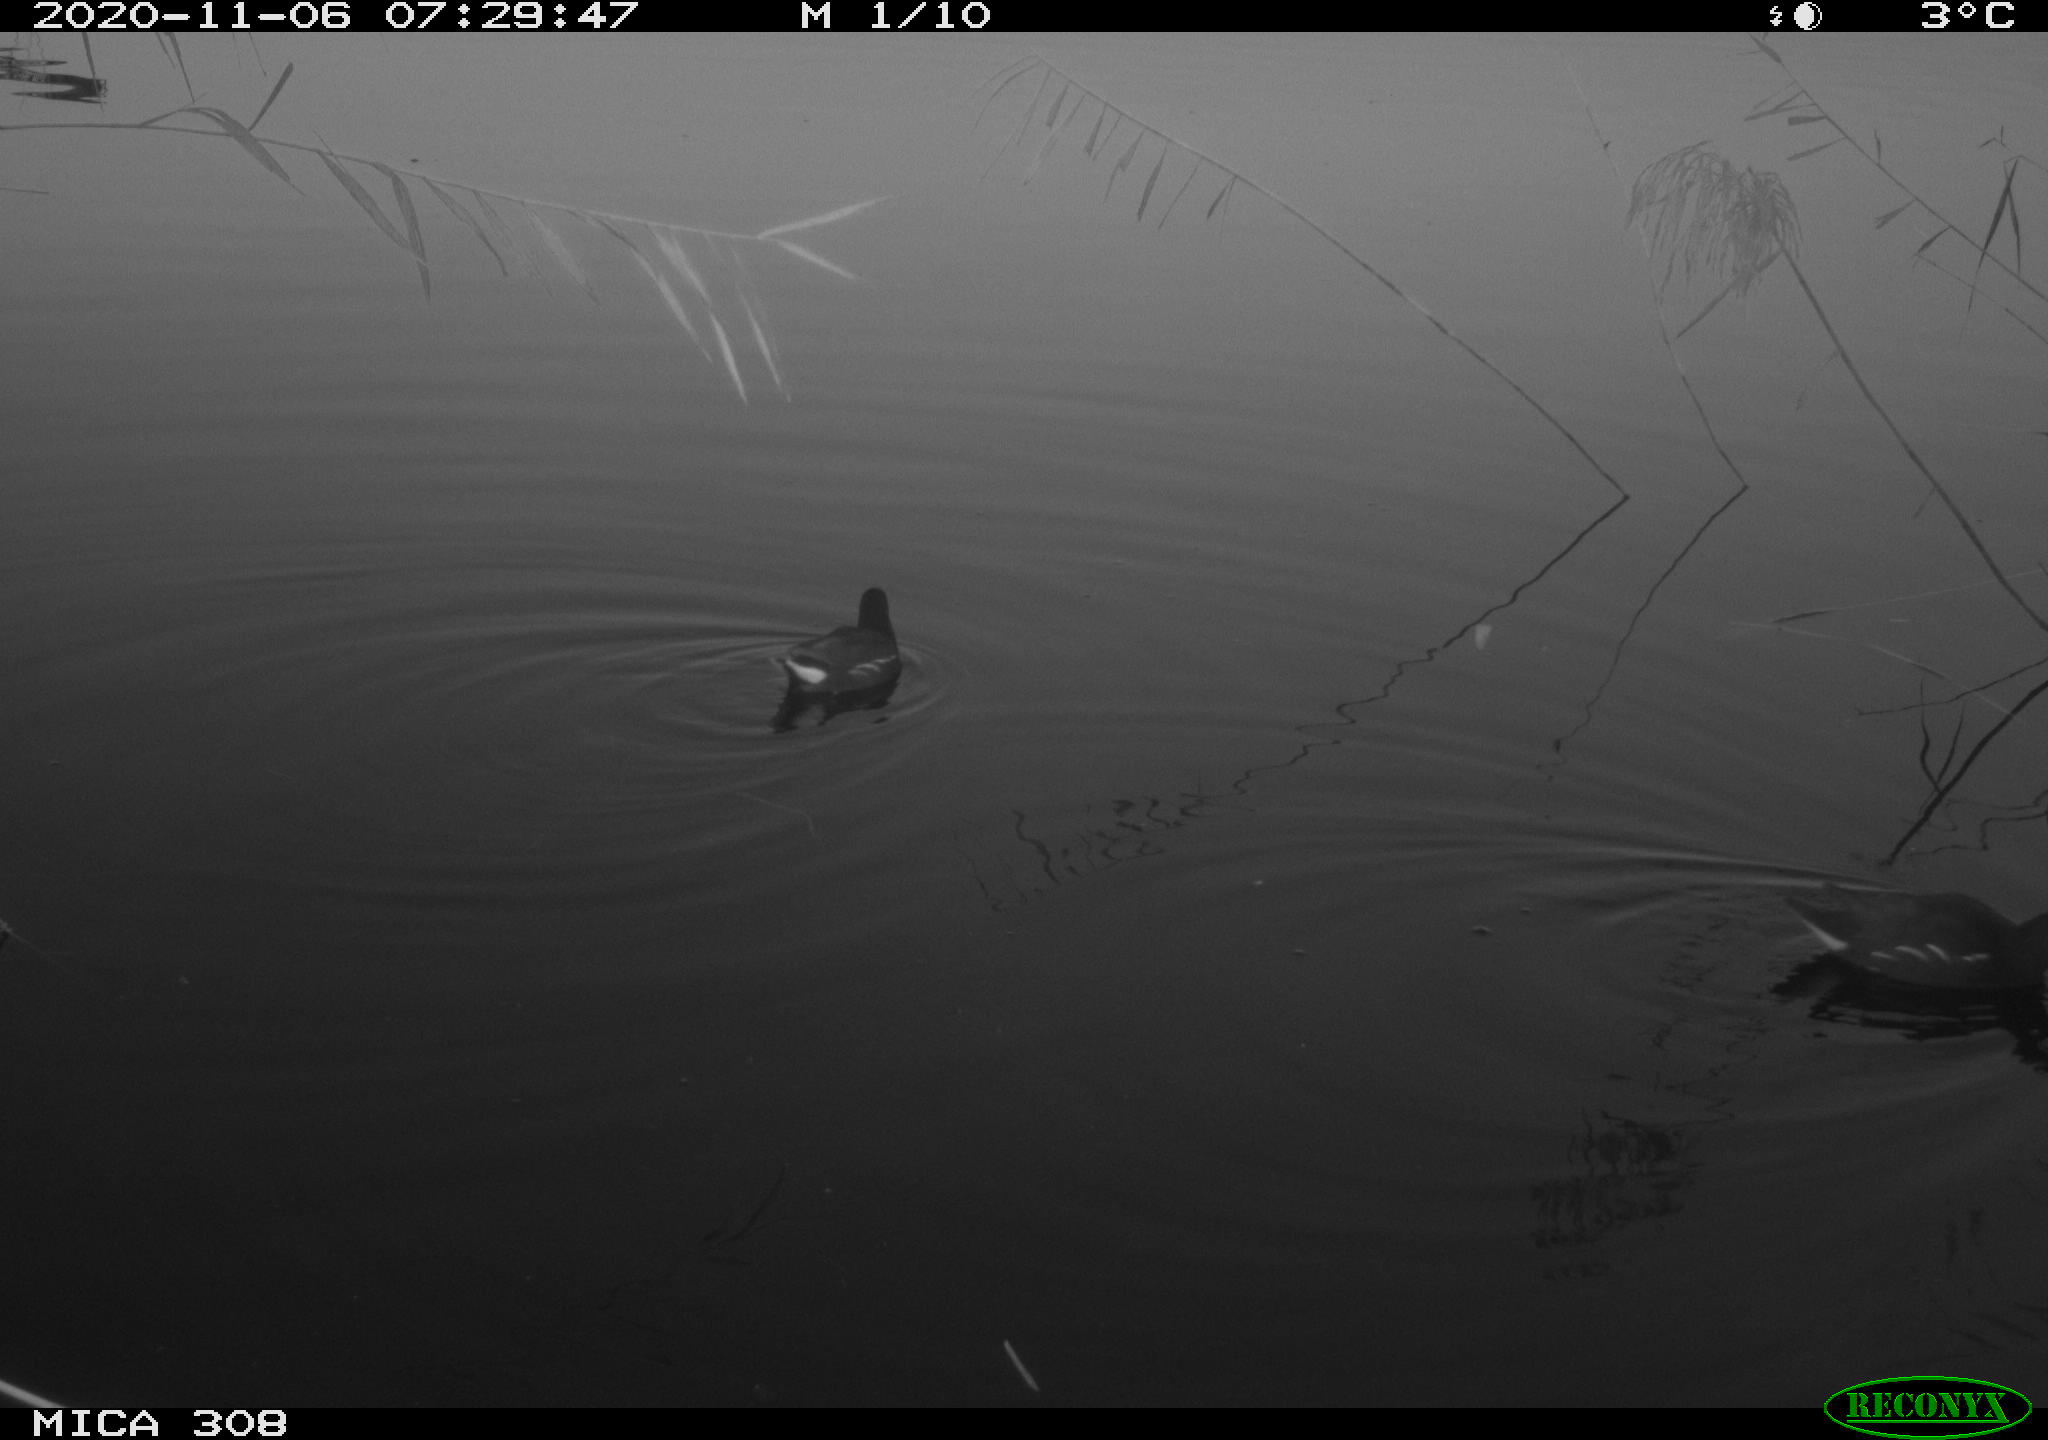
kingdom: Animalia
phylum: Chordata
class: Aves
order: Gruiformes
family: Rallidae
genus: Gallinula
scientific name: Gallinula chloropus
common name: Common moorhen
